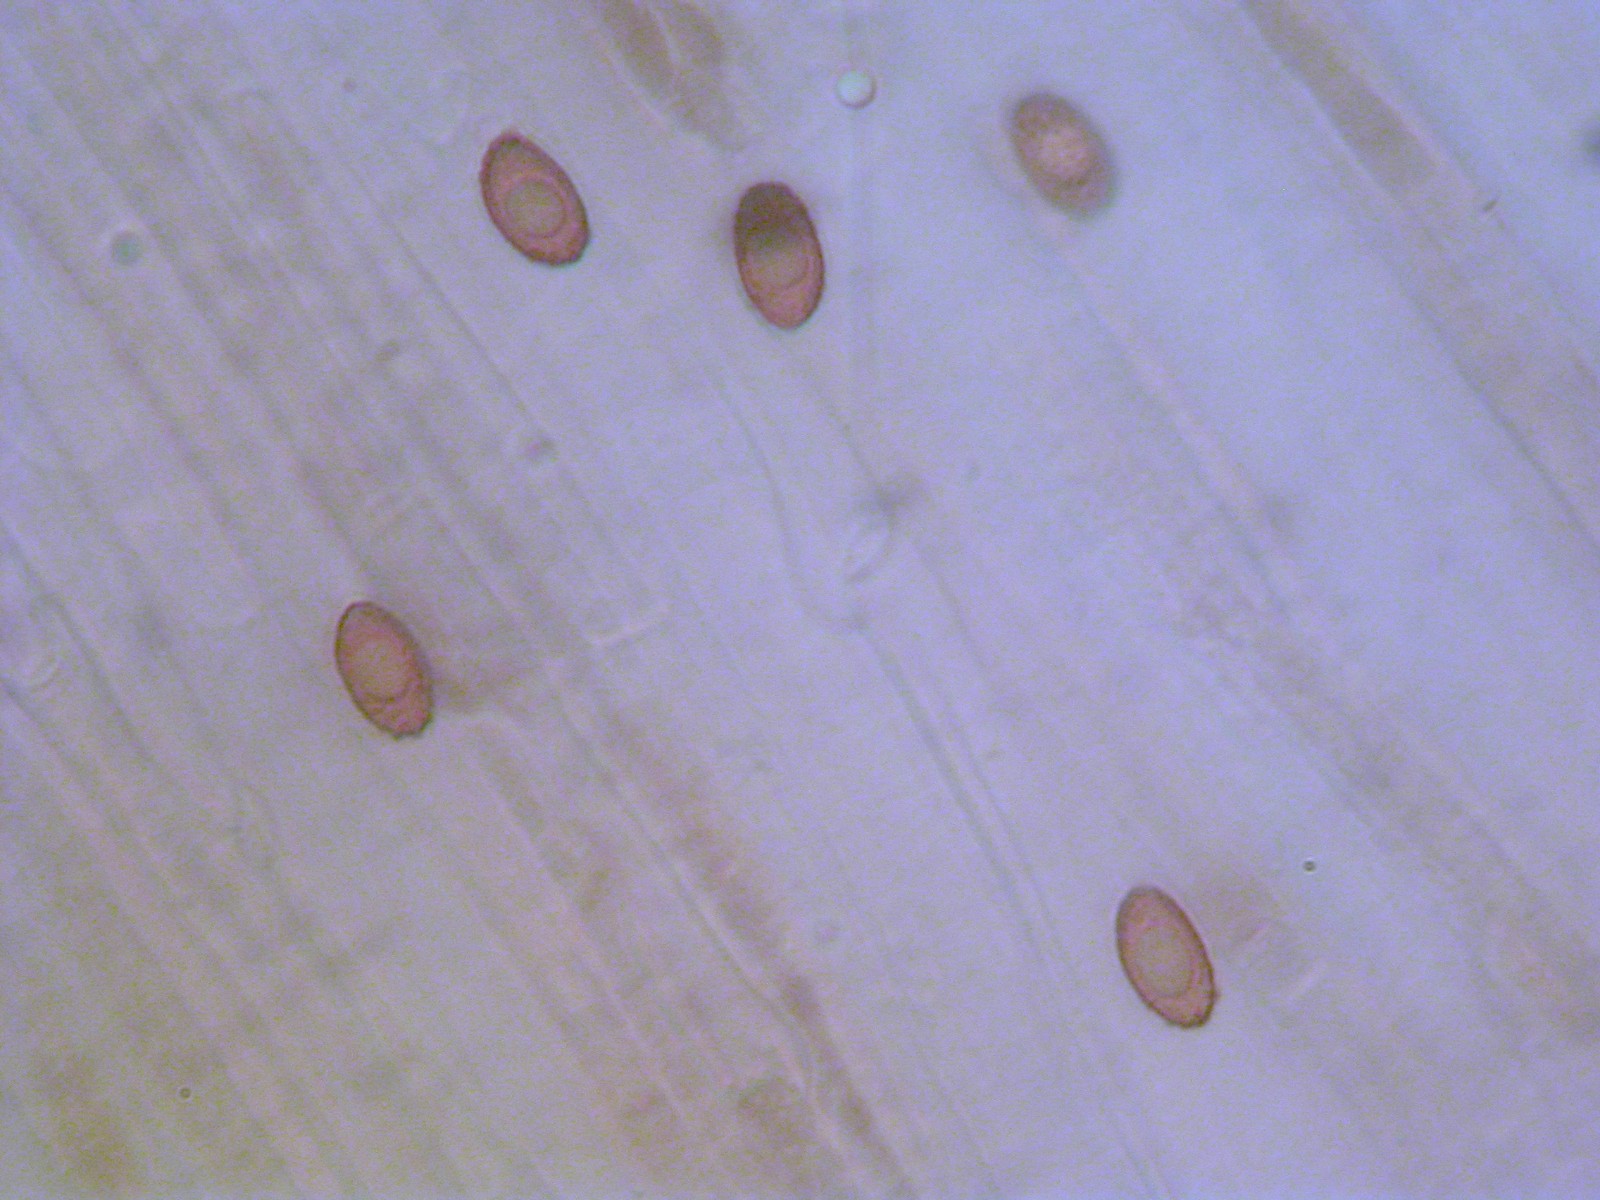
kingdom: Fungi
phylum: Basidiomycota
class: Agaricomycetes
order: Agaricales
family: Cortinariaceae
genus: Cortinarius
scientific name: Cortinarius saturninus
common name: brunviolet slørhat
